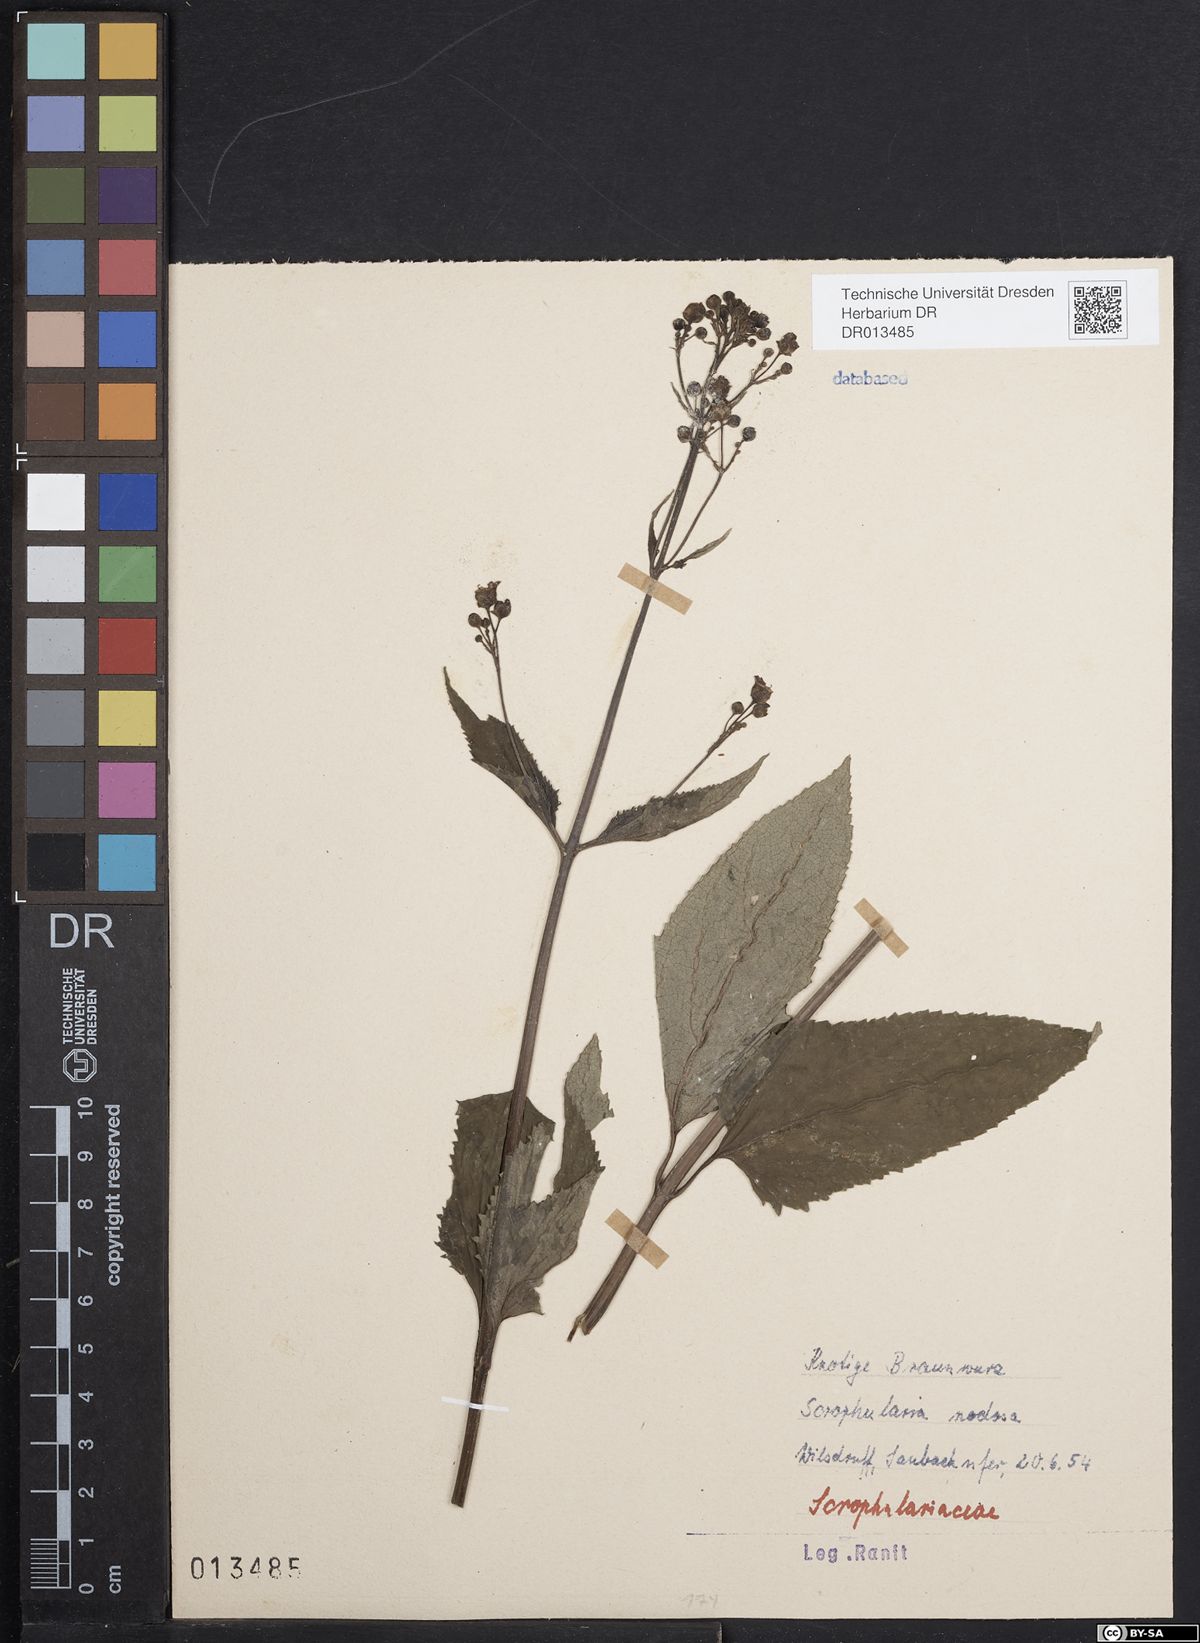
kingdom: Plantae
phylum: Tracheophyta
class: Magnoliopsida
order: Lamiales
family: Scrophulariaceae
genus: Scrophularia
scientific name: Scrophularia nodosa
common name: Common figwort
